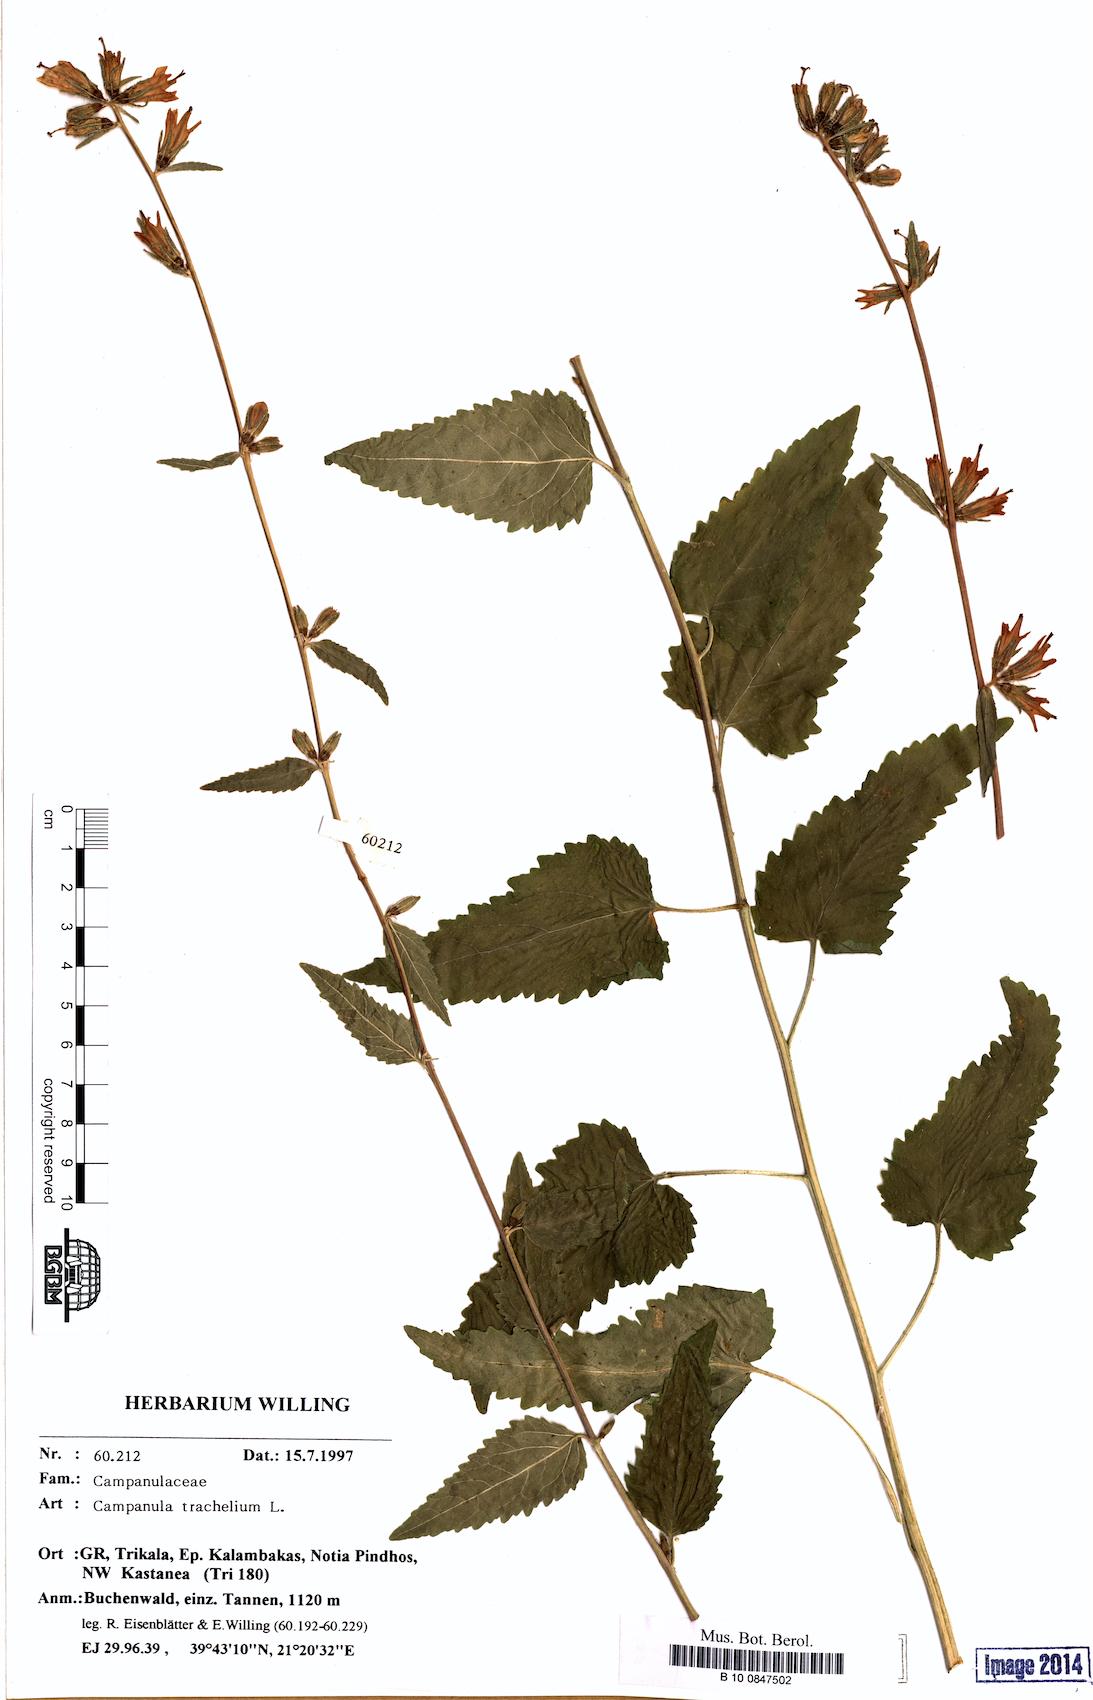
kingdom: Plantae
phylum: Tracheophyta
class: Magnoliopsida
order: Asterales
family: Campanulaceae
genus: Campanula
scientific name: Campanula trachelium
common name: Nettle-leaved bellflower
